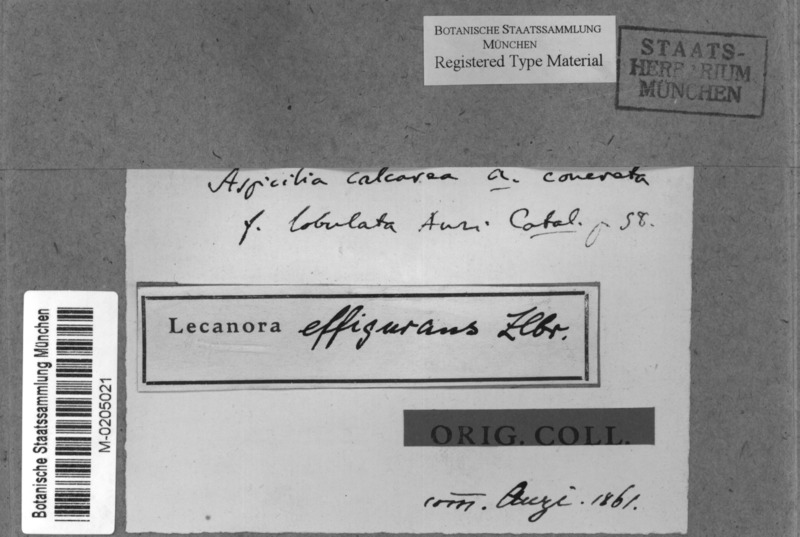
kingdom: Fungi
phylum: Ascomycota
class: Lecanoromycetes
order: Pertusariales
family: Megasporaceae
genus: Oxneriaria
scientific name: Oxneriaria verruculosa
